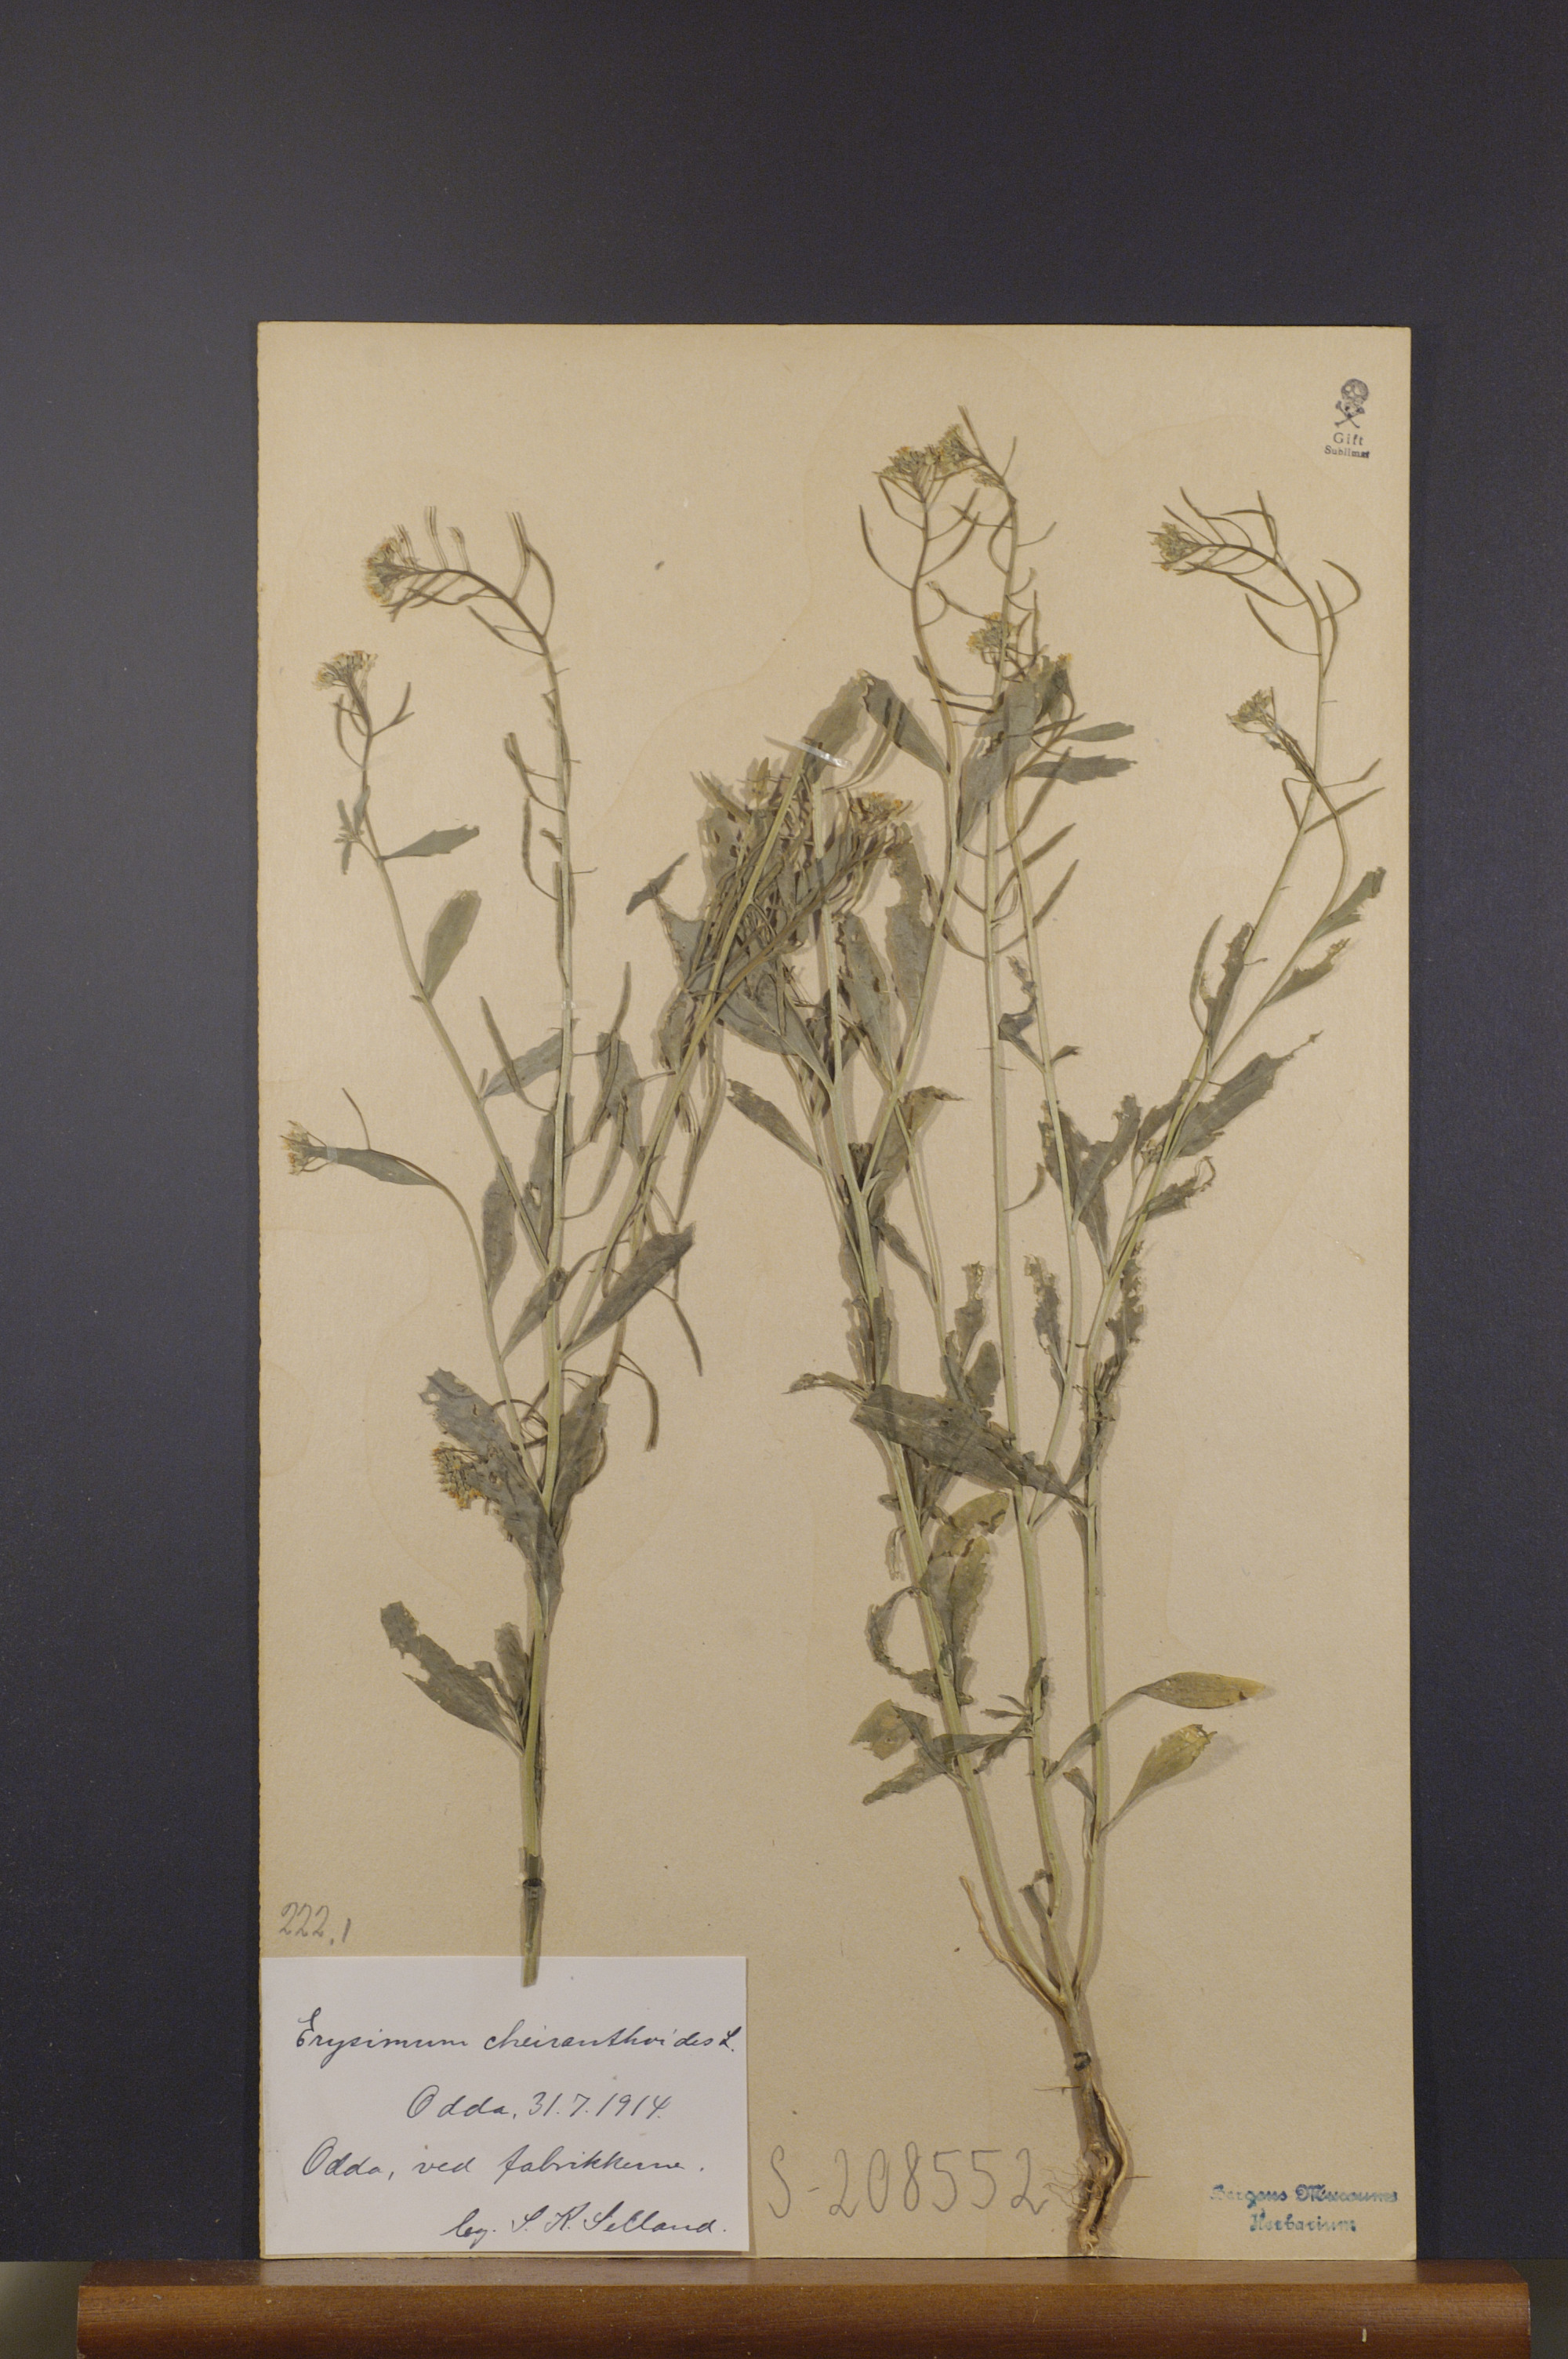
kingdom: Plantae
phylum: Tracheophyta
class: Magnoliopsida
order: Brassicales
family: Brassicaceae
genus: Erysimum
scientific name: Erysimum cheiranthoides
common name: Treacle mustard
